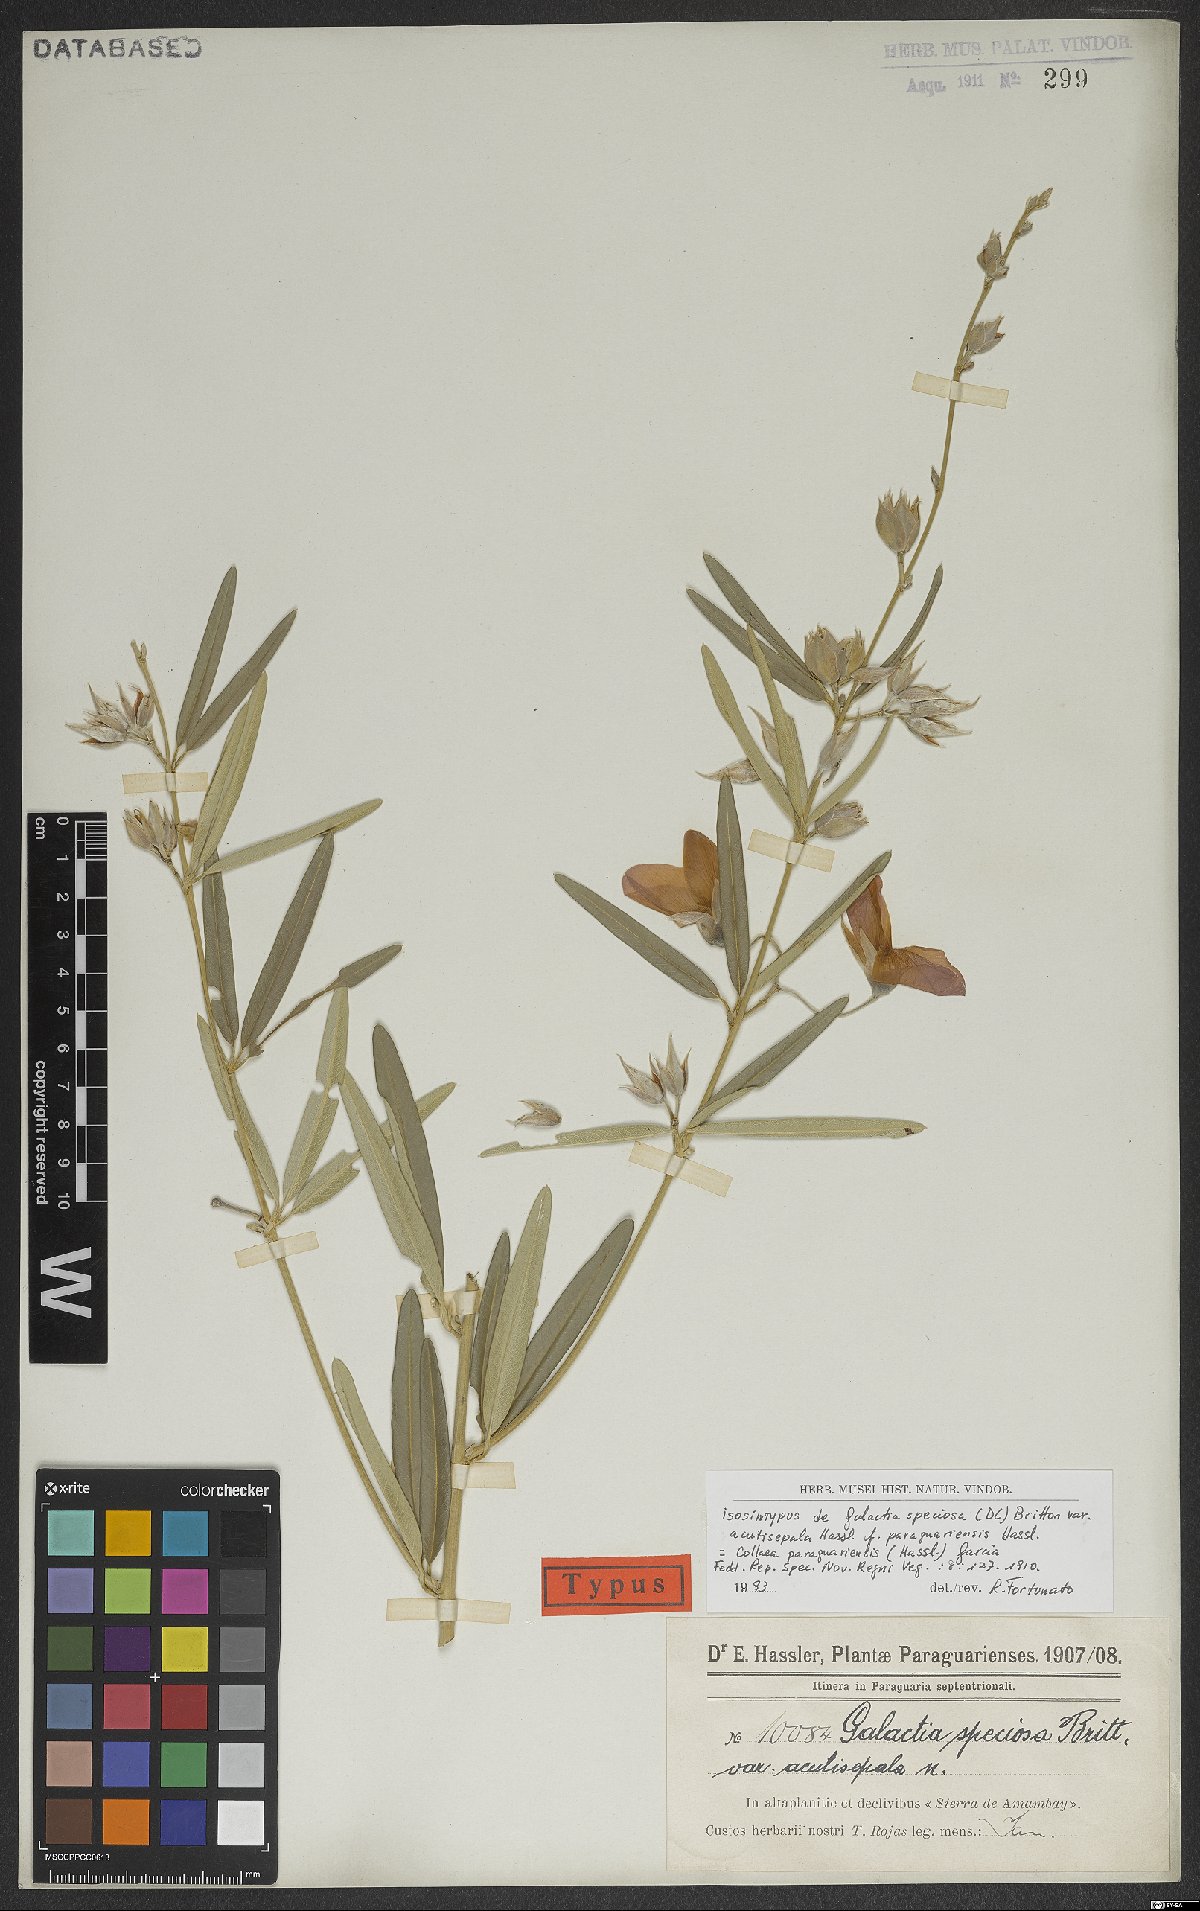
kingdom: Plantae
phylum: Tracheophyta
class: Magnoliopsida
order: Fabales
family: Fabaceae
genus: Collaea
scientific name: Collaea speciosa
